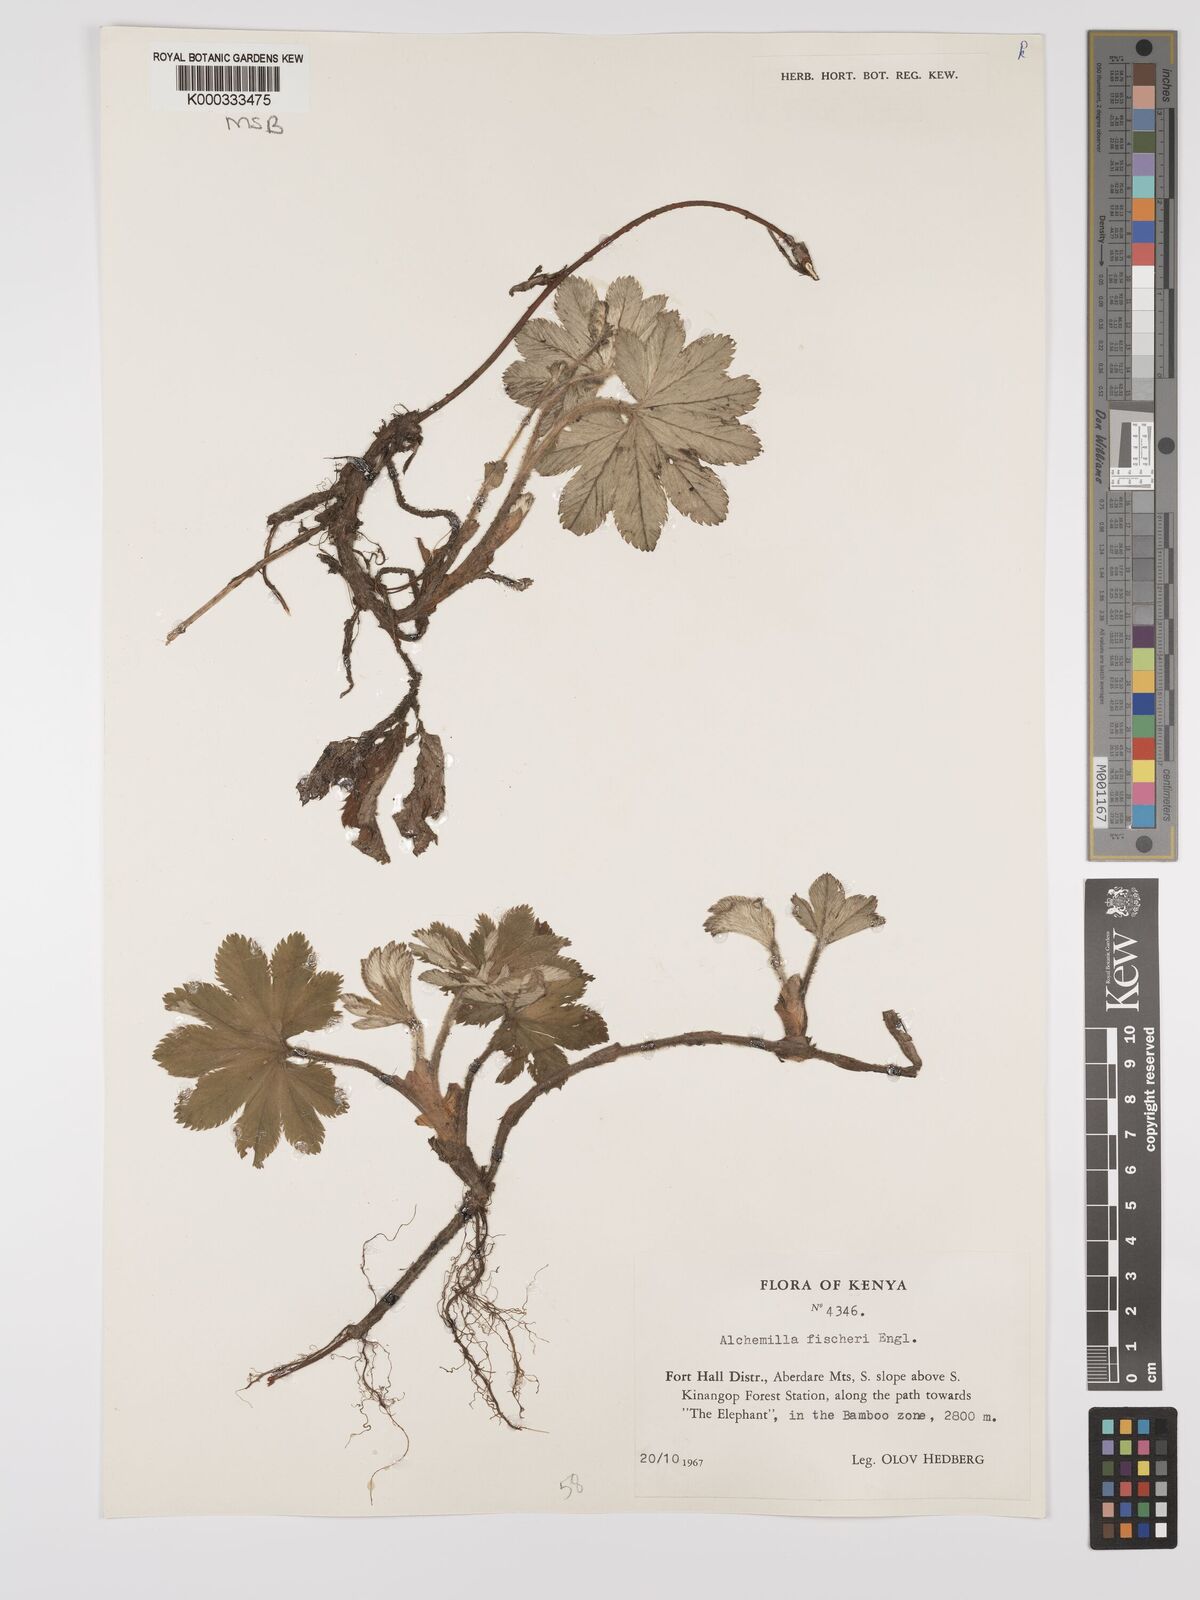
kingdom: Plantae
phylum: Tracheophyta
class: Magnoliopsida
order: Rosales
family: Rosaceae
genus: Alchemilla
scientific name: Alchemilla fischeri
